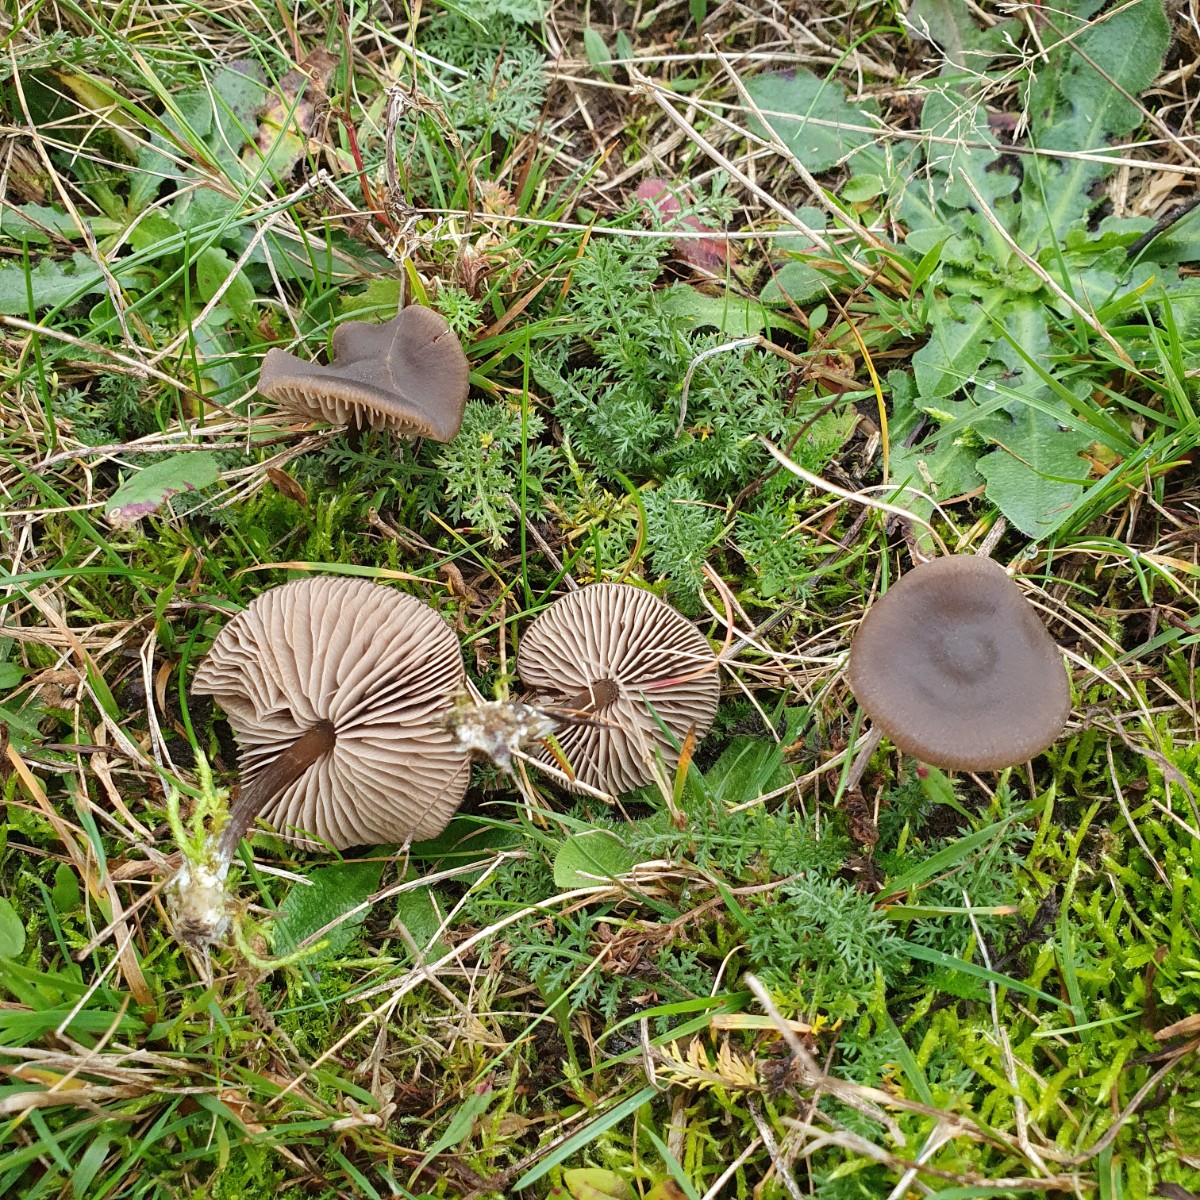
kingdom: Fungi
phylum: Basidiomycota
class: Agaricomycetes
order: Agaricales
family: Entolomataceae
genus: Entoloma
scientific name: Entoloma sericeum
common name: silkeglinsende rødblad
